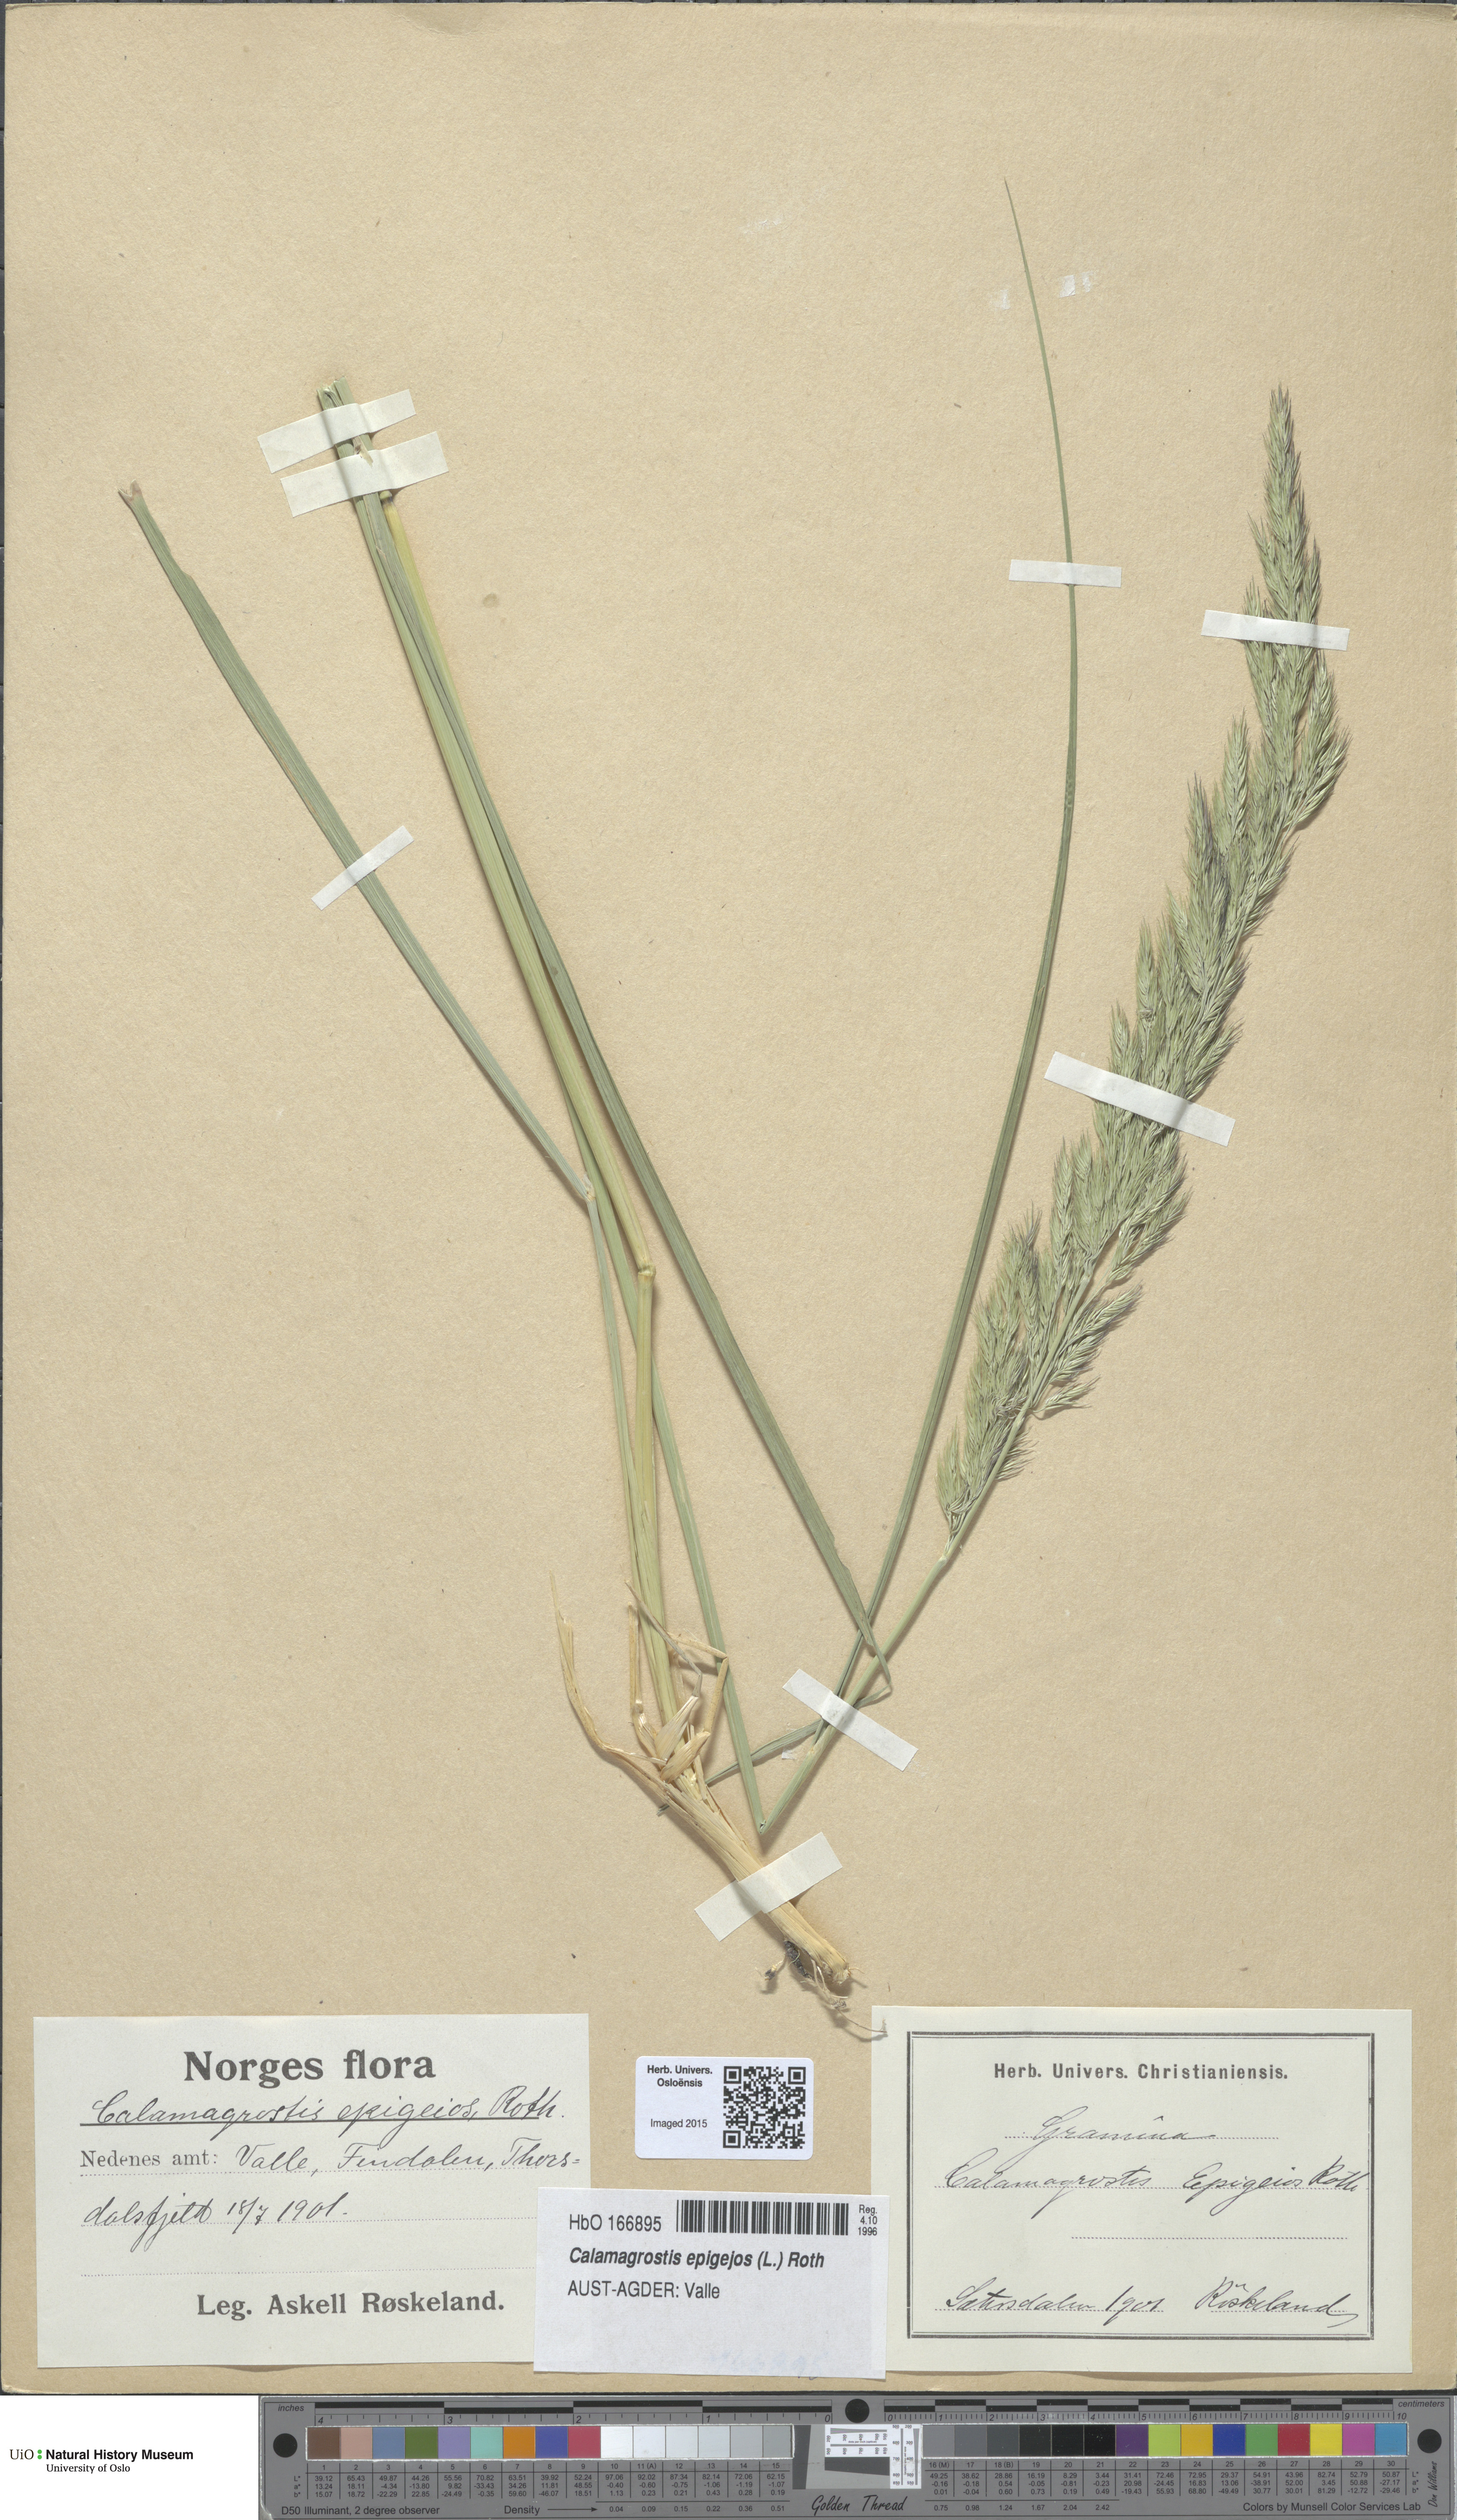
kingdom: Plantae
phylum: Tracheophyta
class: Liliopsida
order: Poales
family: Poaceae
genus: Calamagrostis
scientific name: Calamagrostis epigejos
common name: Wood small-reed
